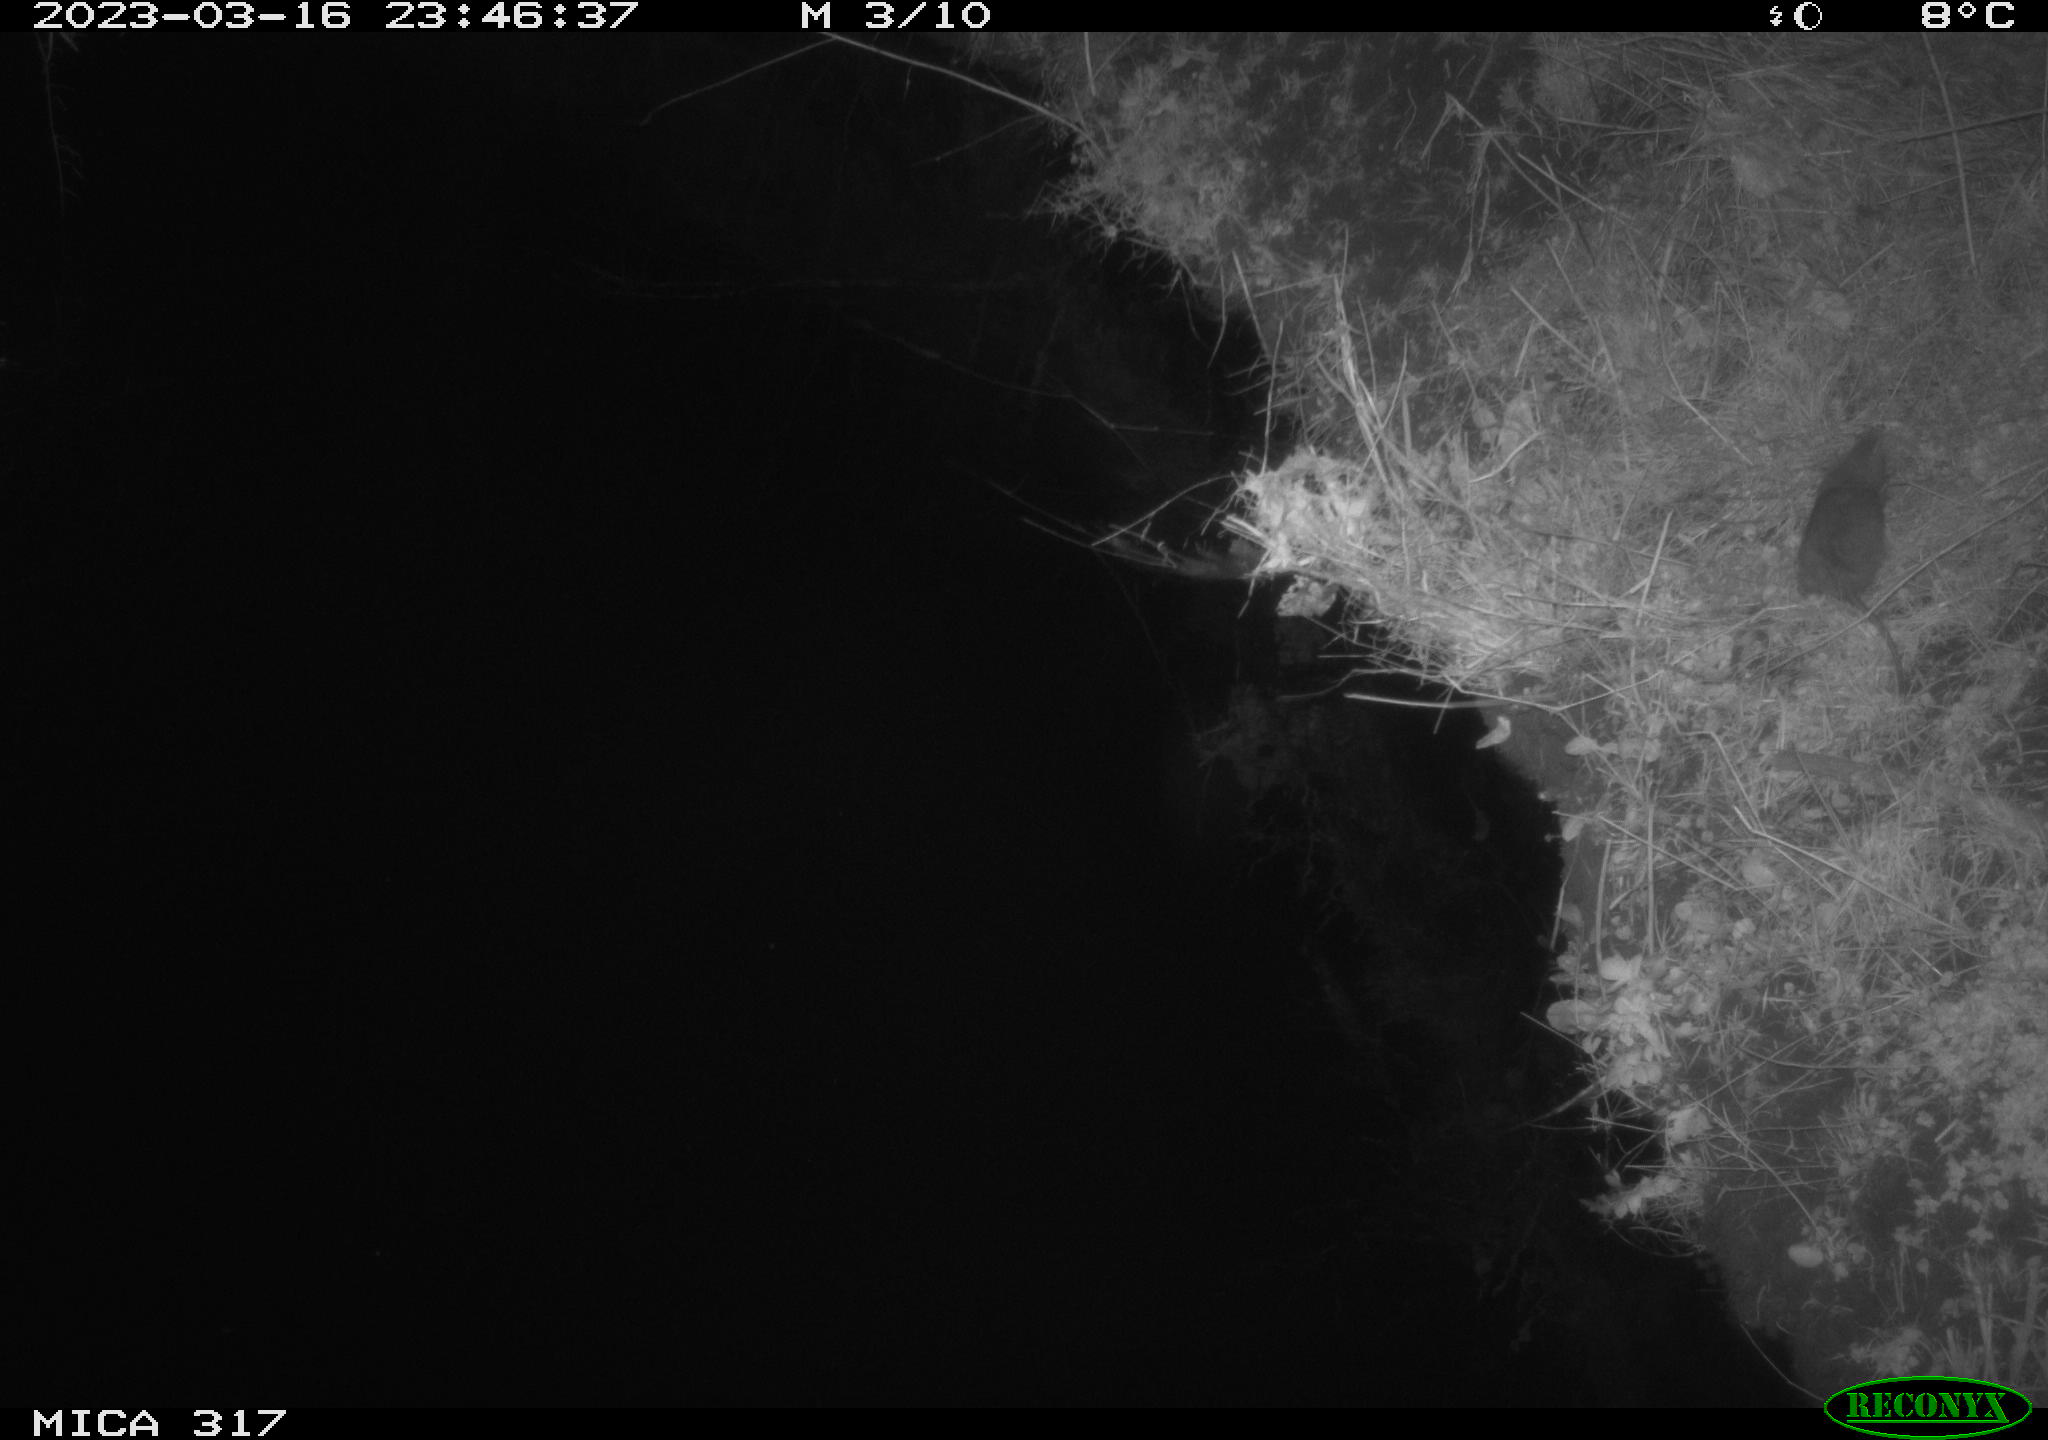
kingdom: Animalia
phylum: Chordata
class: Mammalia
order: Rodentia
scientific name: Rodentia
